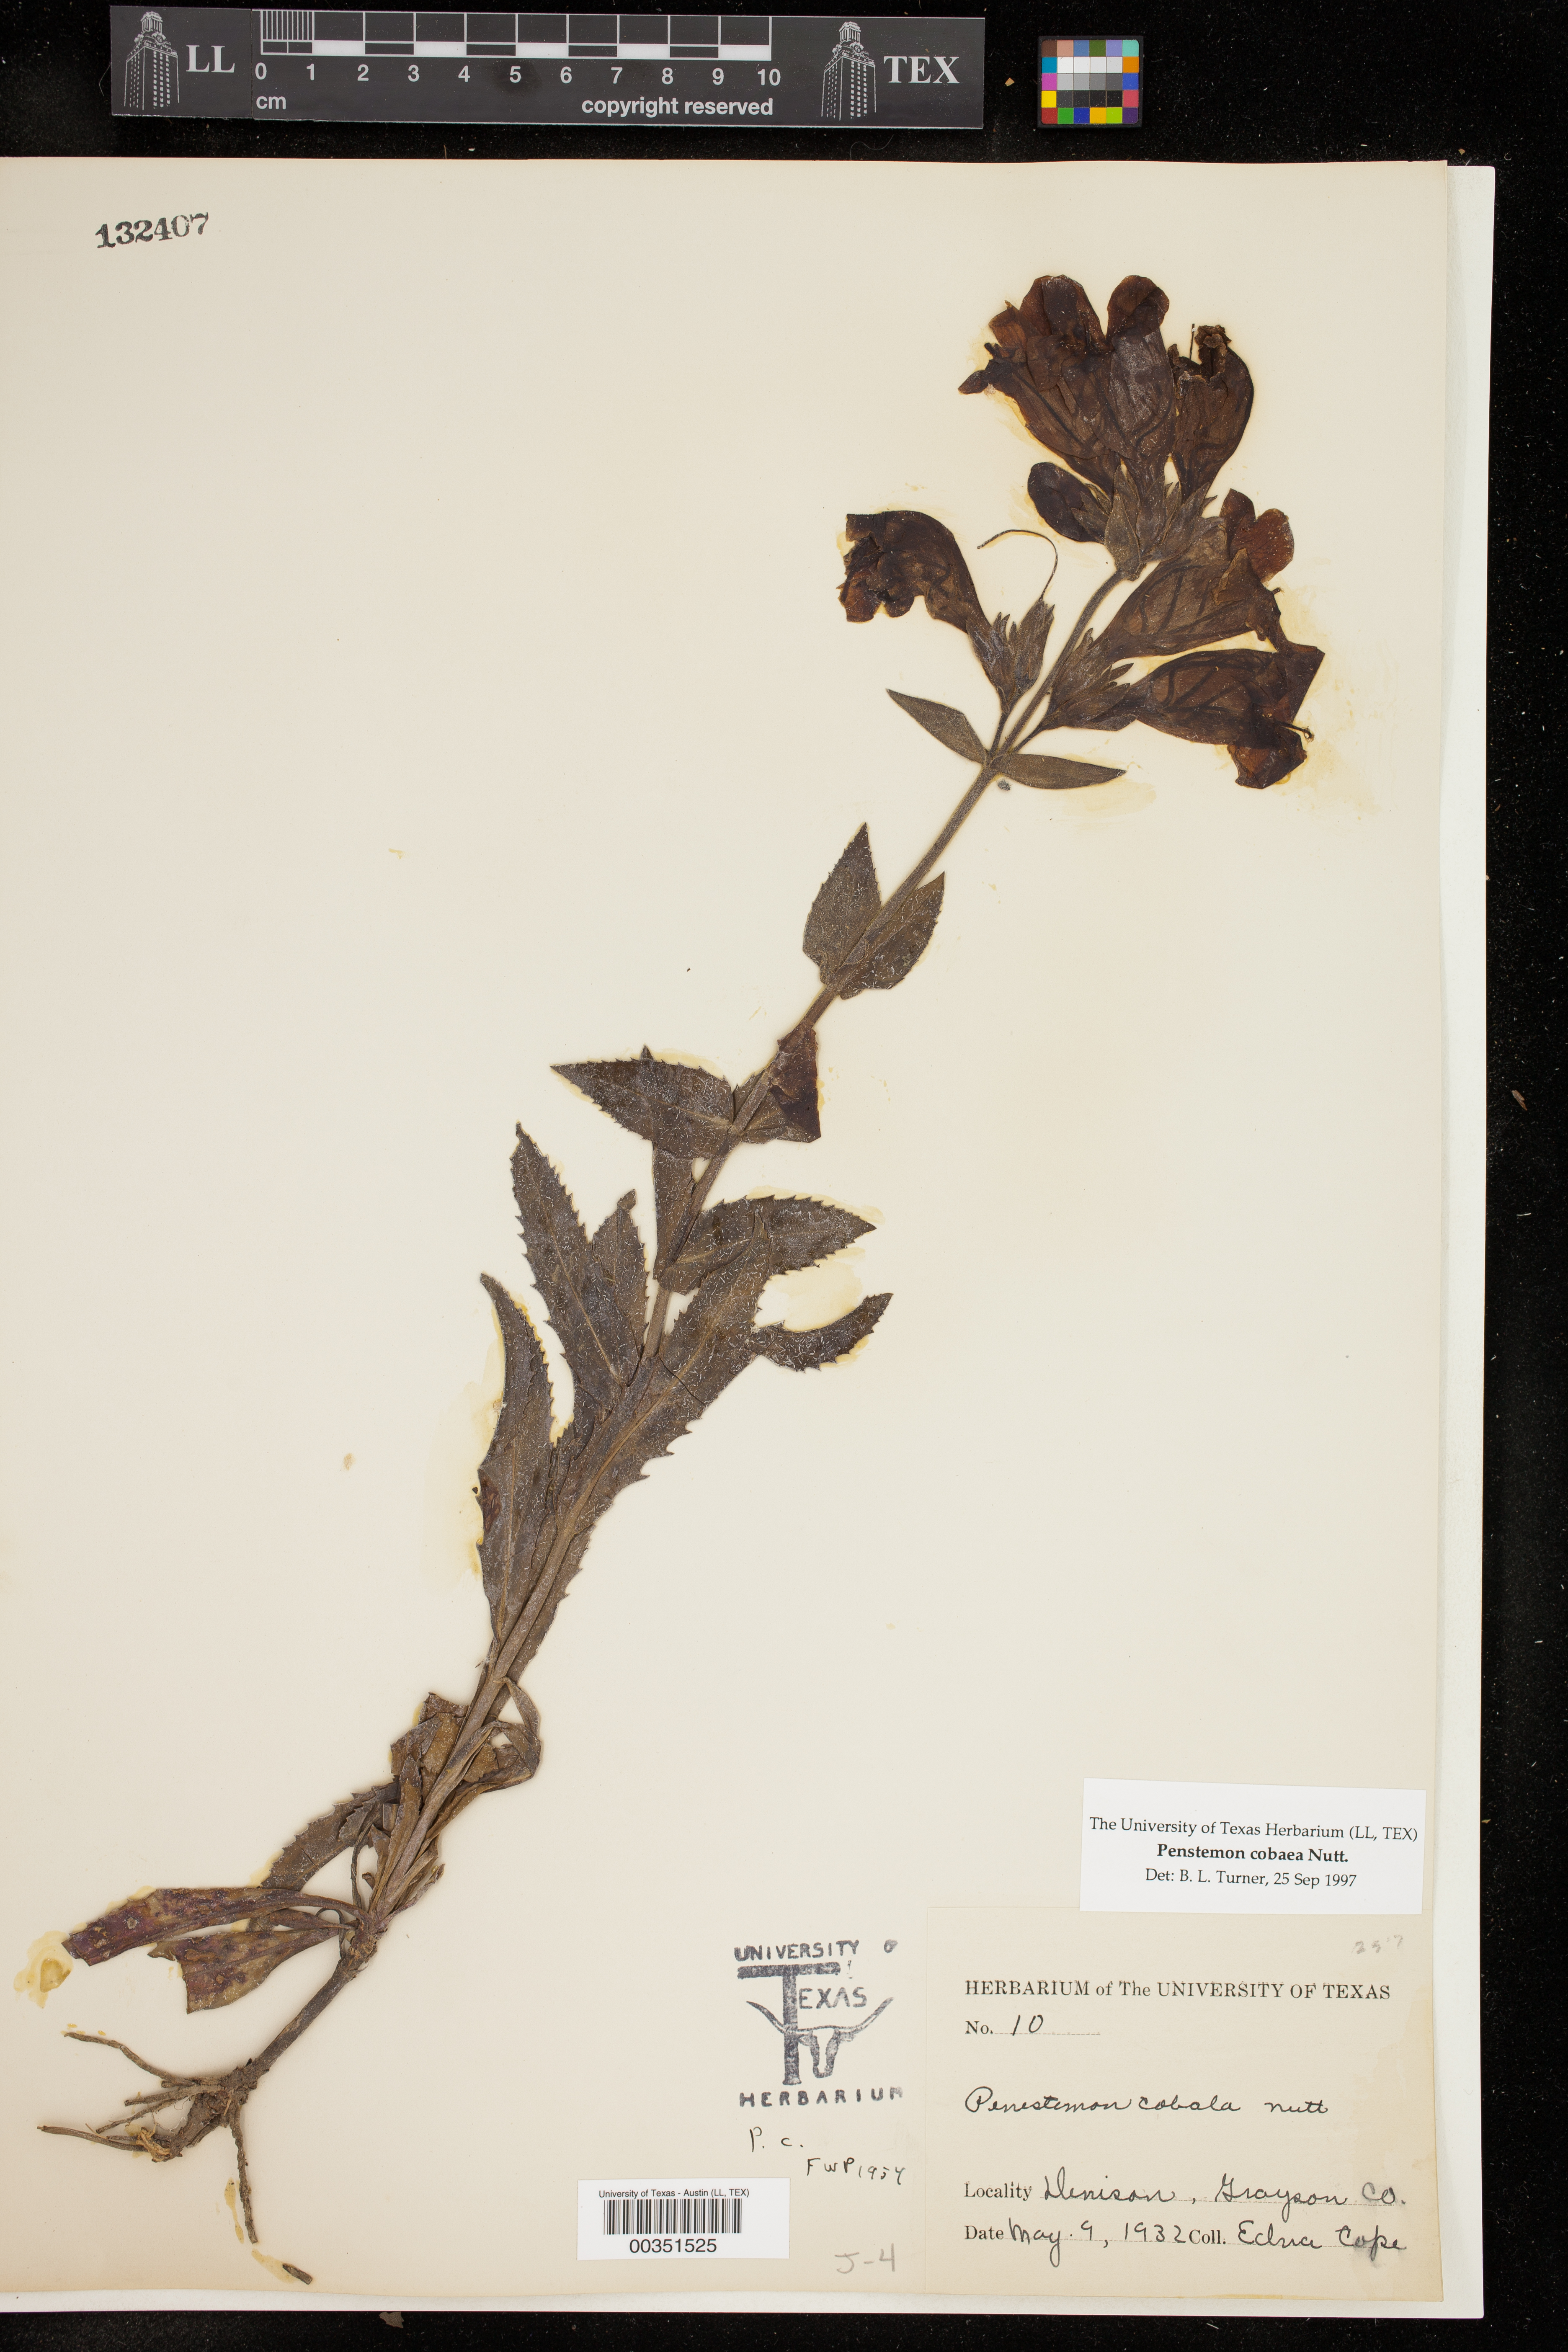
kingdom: Plantae
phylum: Tracheophyta
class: Magnoliopsida
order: Lamiales
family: Plantaginaceae
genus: Penstemon
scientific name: Penstemon cobaea
